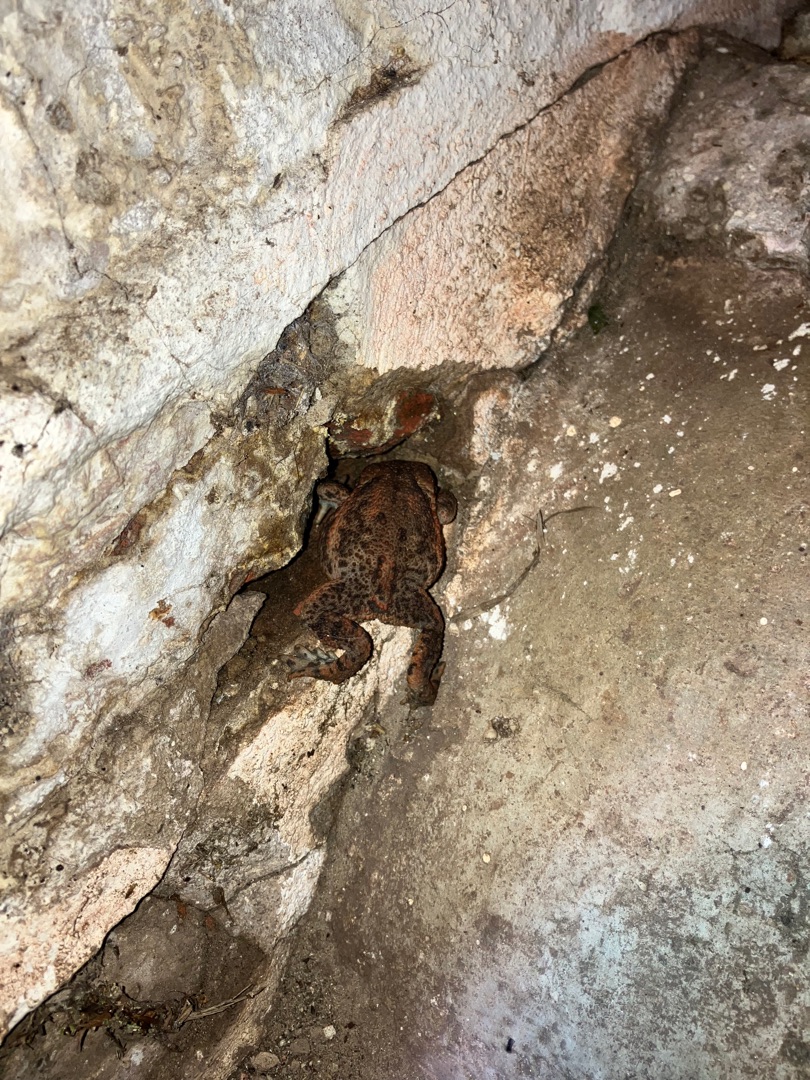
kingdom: Animalia
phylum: Chordata
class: Amphibia
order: Anura
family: Bufonidae
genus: Bufo
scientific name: Bufo bufo
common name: Skrubtudse
